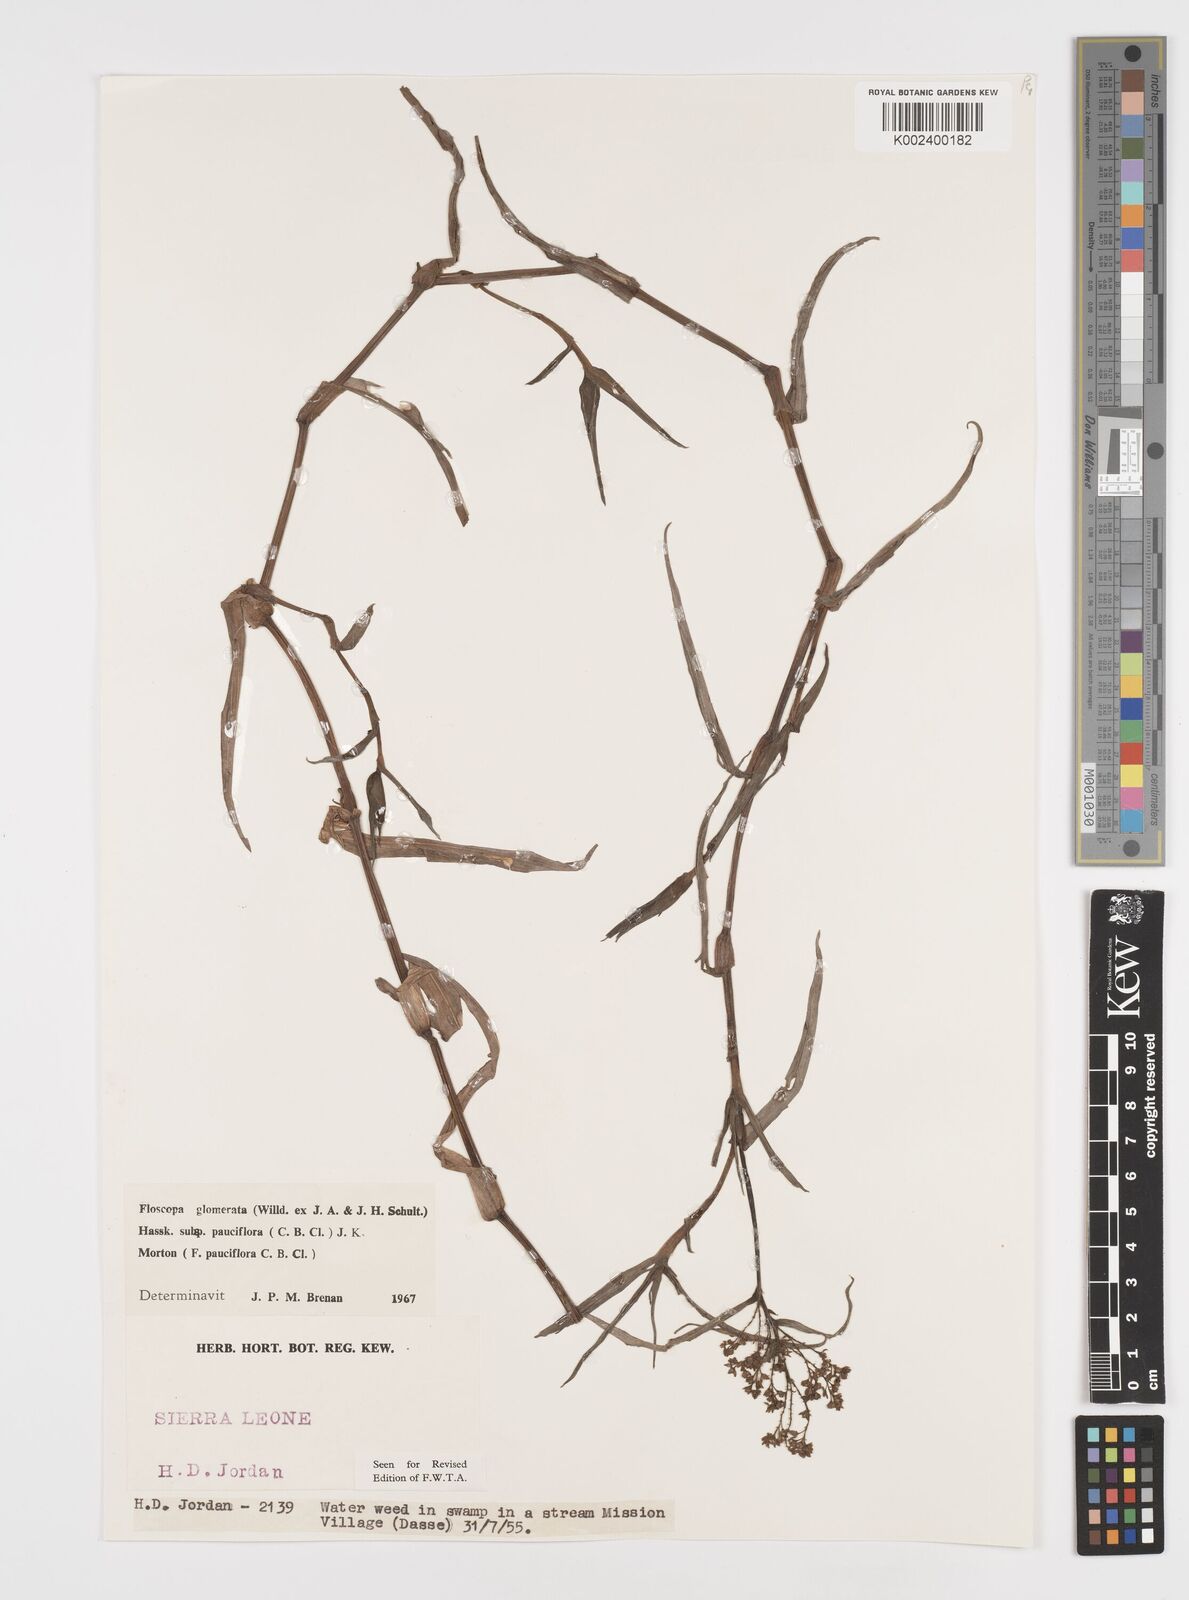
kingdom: Plantae
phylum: Tracheophyta
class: Liliopsida
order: Commelinales
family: Commelinaceae
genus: Floscopa
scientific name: Floscopa glomerata
